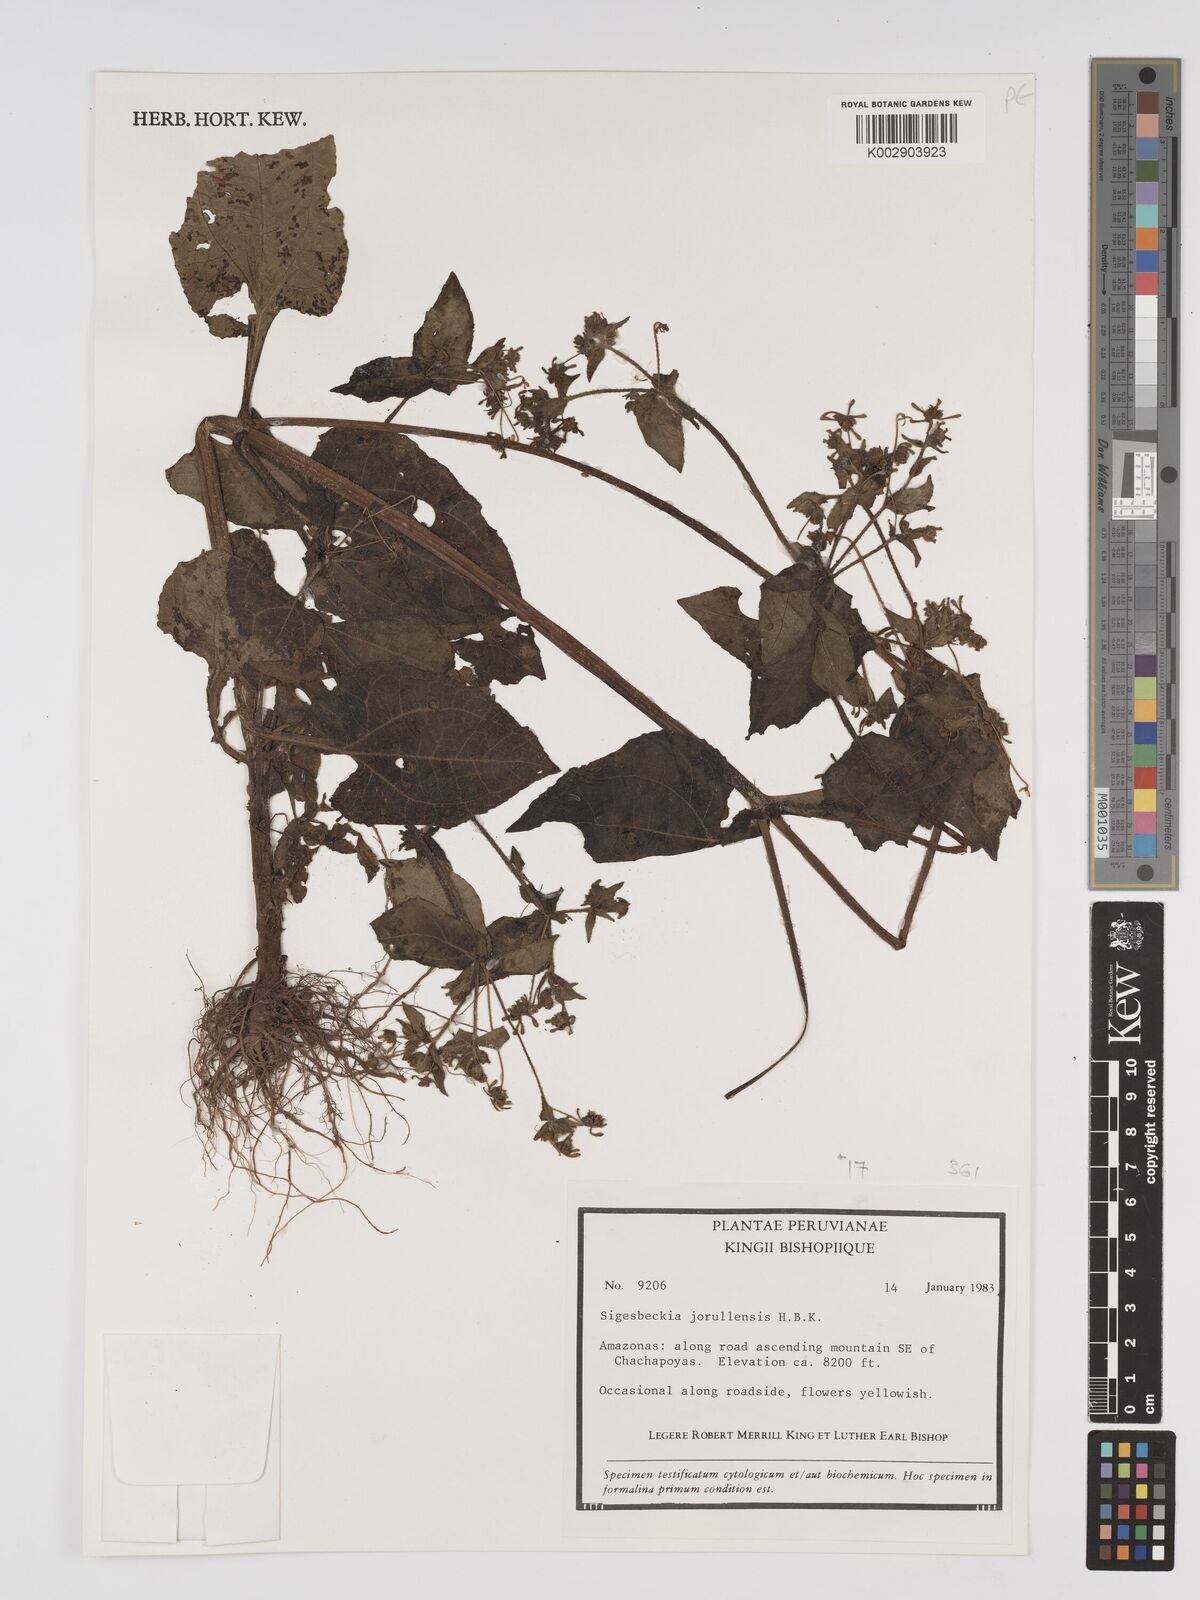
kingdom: Plantae
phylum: Tracheophyta
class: Magnoliopsida
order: Asterales
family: Asteraceae
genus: Sigesbeckia
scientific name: Sigesbeckia jorullensis
